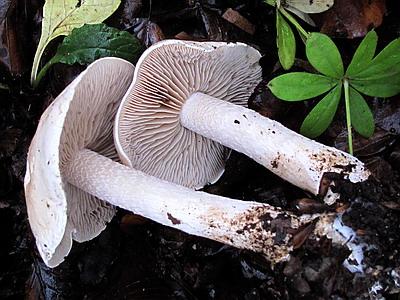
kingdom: Fungi
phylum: Basidiomycota
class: Agaricomycetes
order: Agaricales
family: Hymenogastraceae
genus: Hebeloma
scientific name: Hebeloma sinapizans
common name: ræddike-tåreblad
